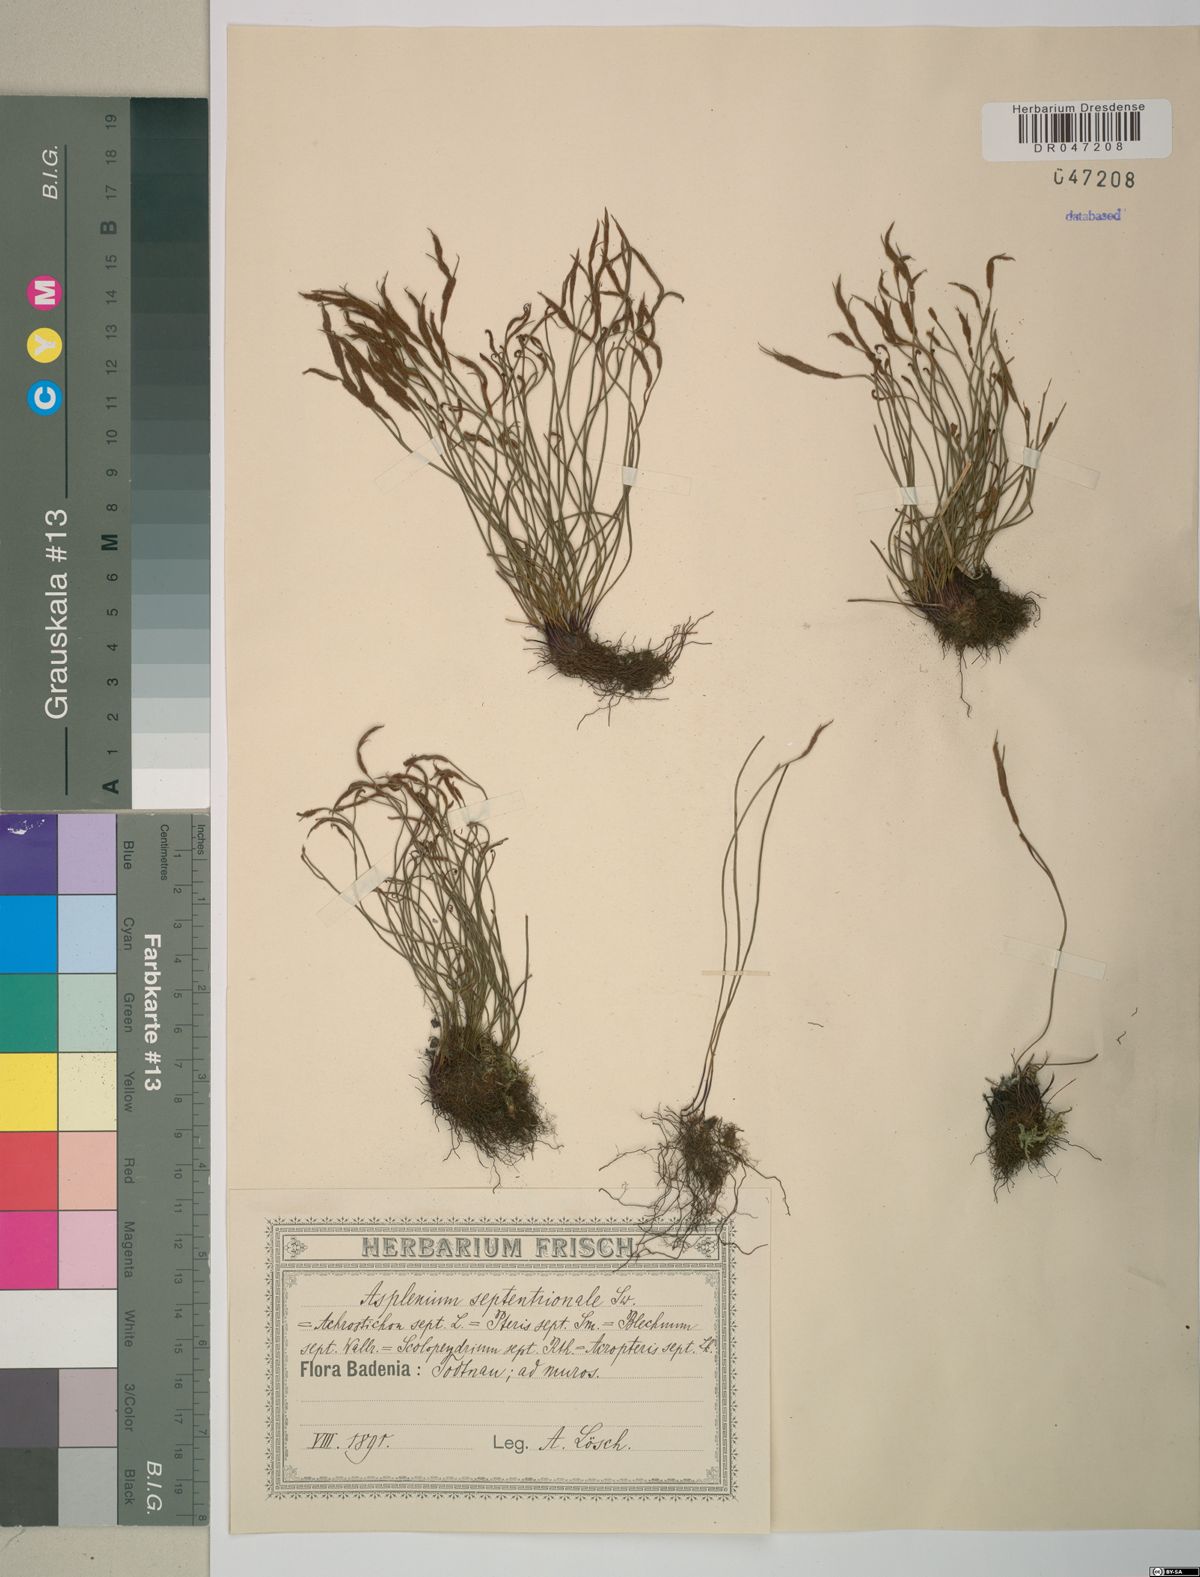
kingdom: Plantae
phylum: Tracheophyta
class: Polypodiopsida
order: Polypodiales
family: Aspleniaceae
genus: Asplenium
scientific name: Asplenium septentrionale
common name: Forked spleenwort
